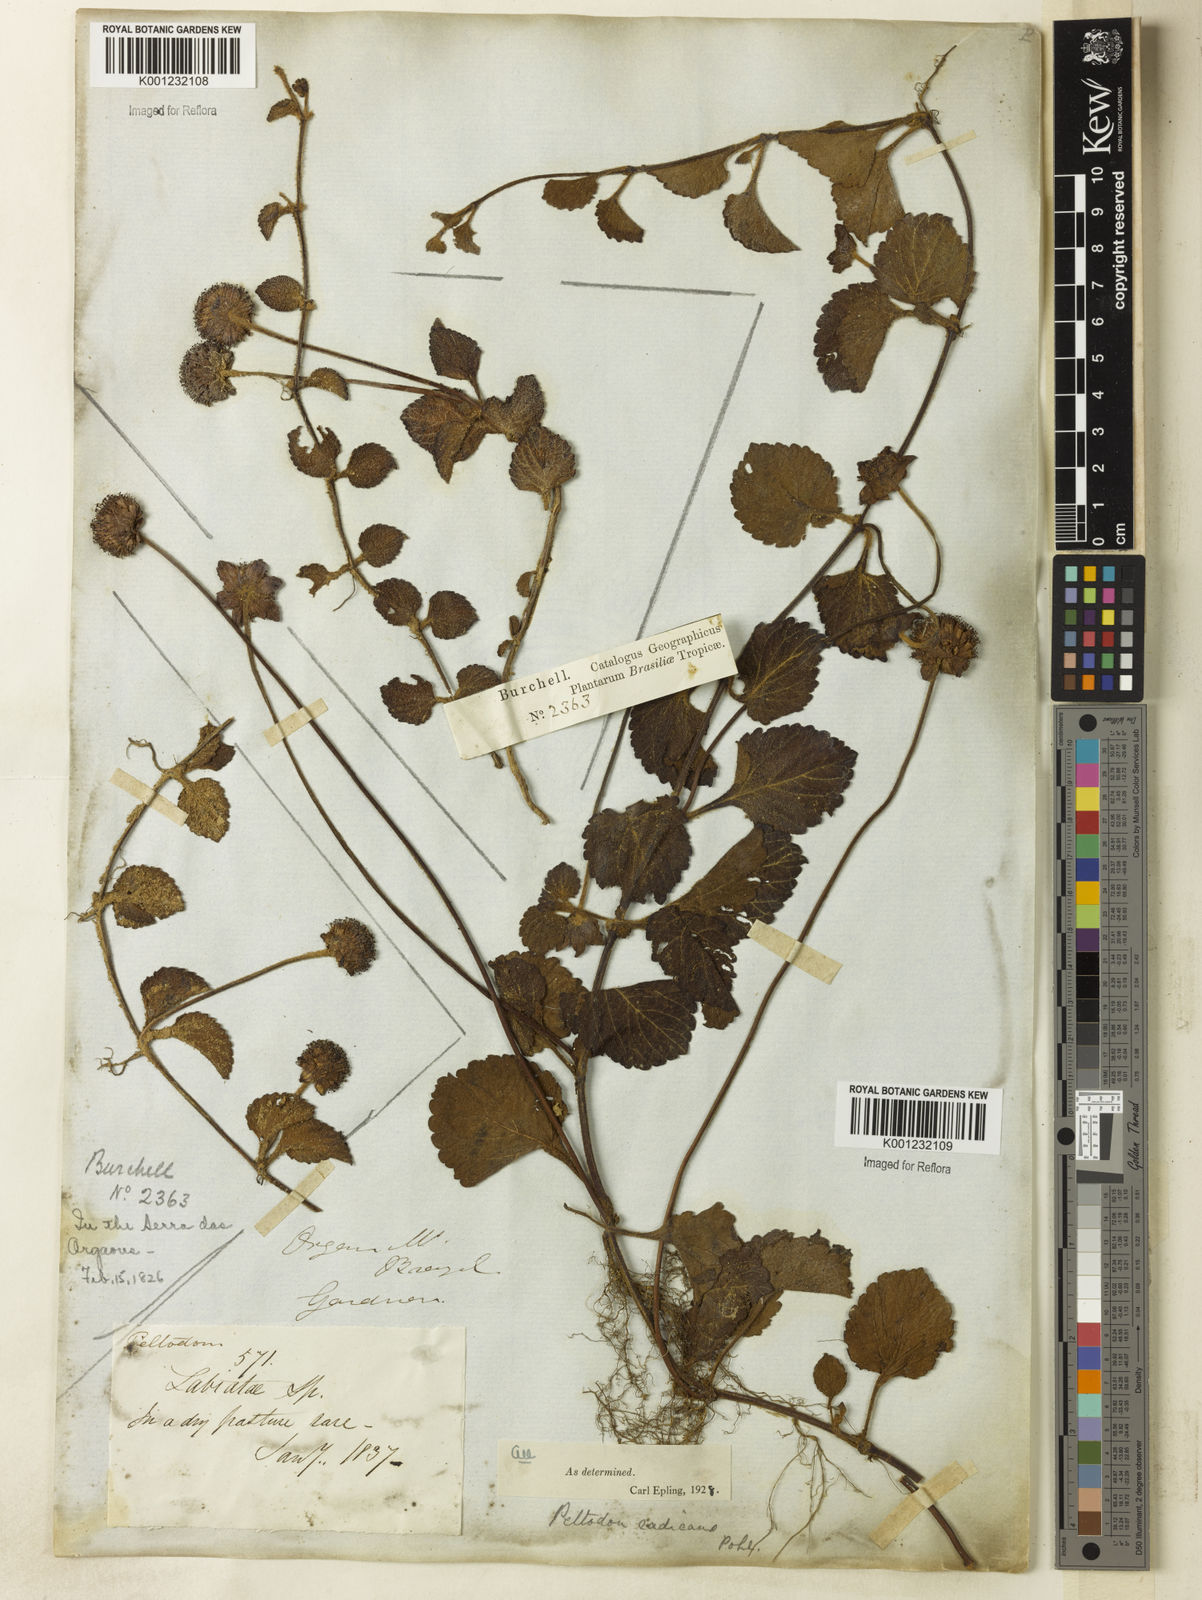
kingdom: Plantae
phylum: Tracheophyta
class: Magnoliopsida
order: Lamiales
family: Lamiaceae
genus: Hyptis
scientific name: Hyptis radicans
